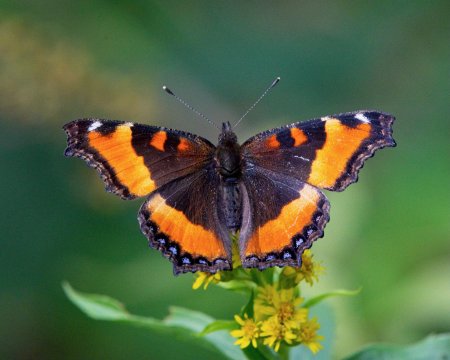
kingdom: Animalia
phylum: Arthropoda
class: Insecta
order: Lepidoptera
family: Nymphalidae
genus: Aglais
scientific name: Aglais milberti
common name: Milbert's Tortoiseshell
